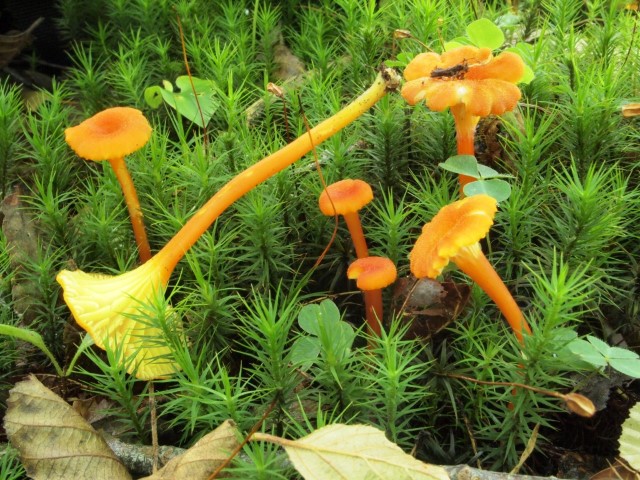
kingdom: Fungi
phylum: Basidiomycota
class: Agaricomycetes
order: Agaricales
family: Hygrophoraceae
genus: Hygrocybe
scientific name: Hygrocybe cantharellus
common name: kantarel-vokshat
